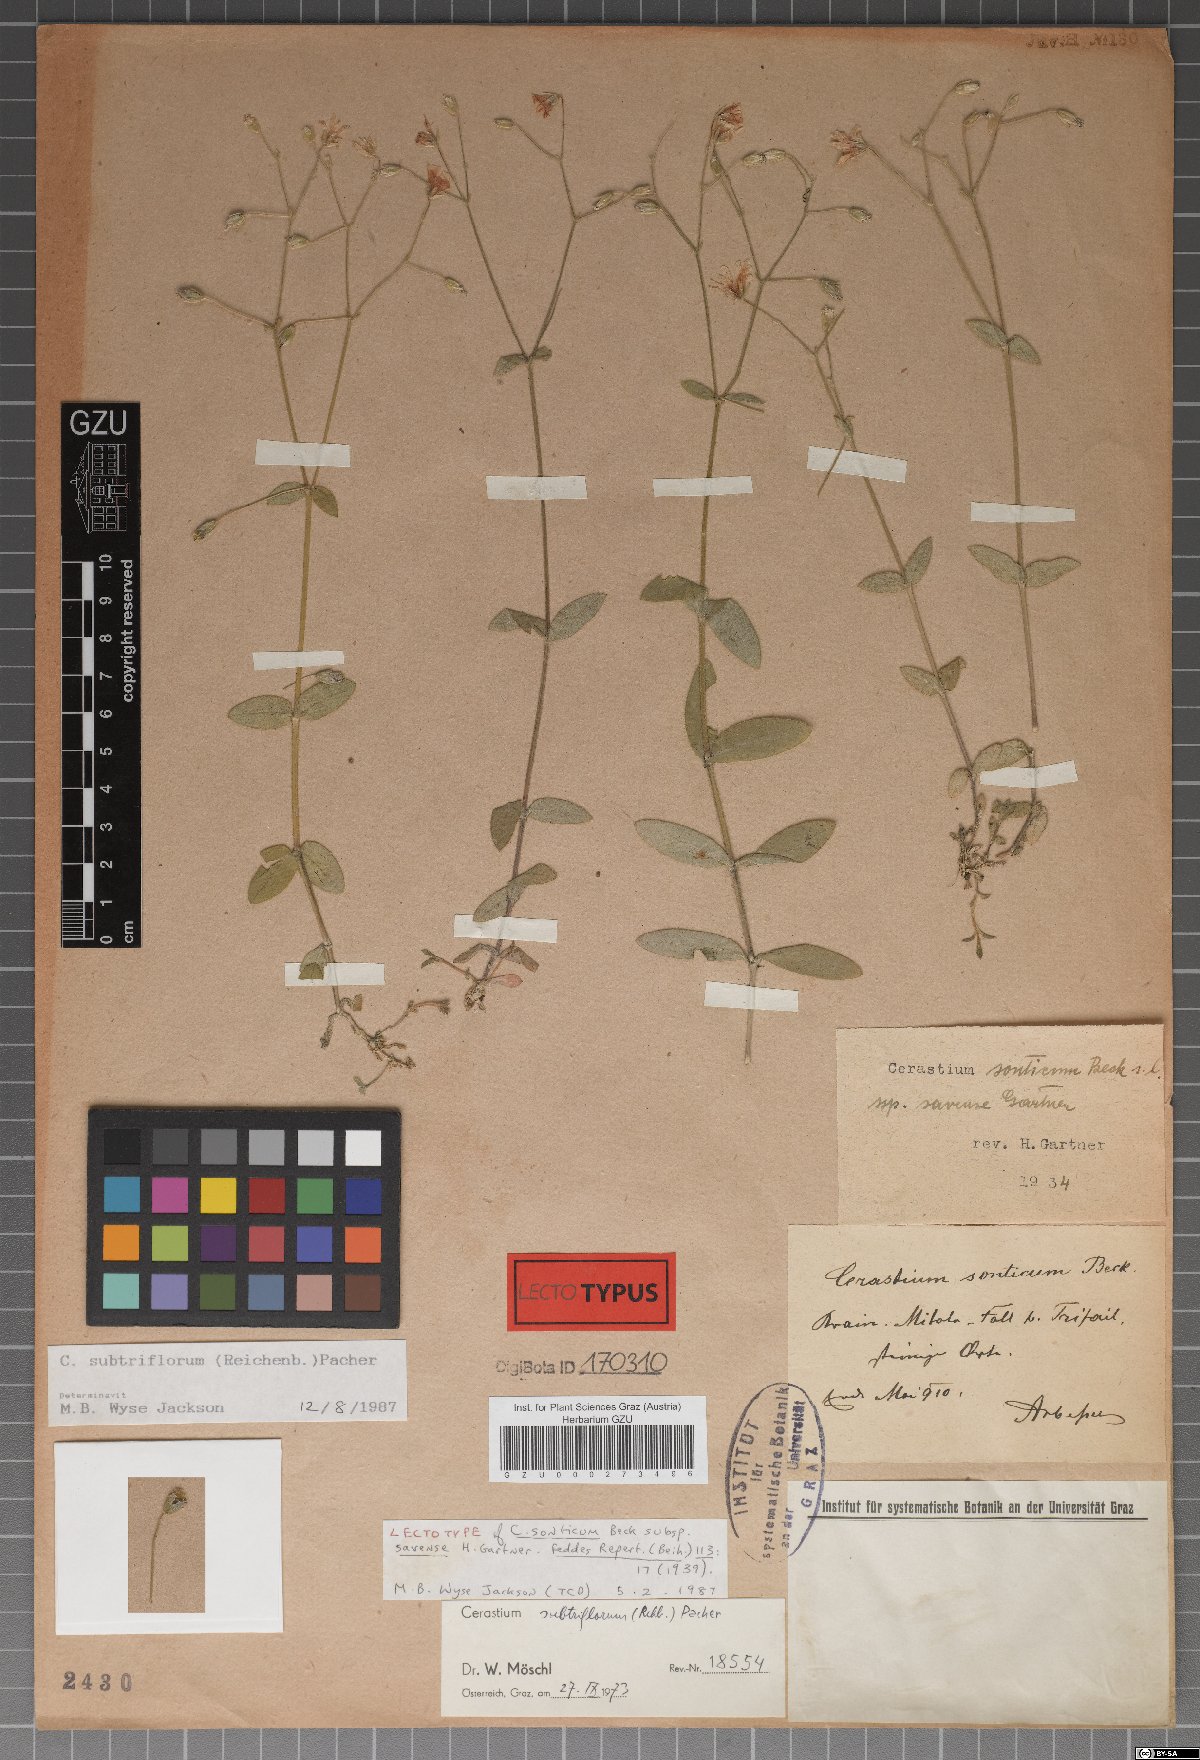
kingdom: Plantae
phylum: Tracheophyta
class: Magnoliopsida
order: Caryophyllales
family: Caryophyllaceae
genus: Cerastium
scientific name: Cerastium subtriflorum
